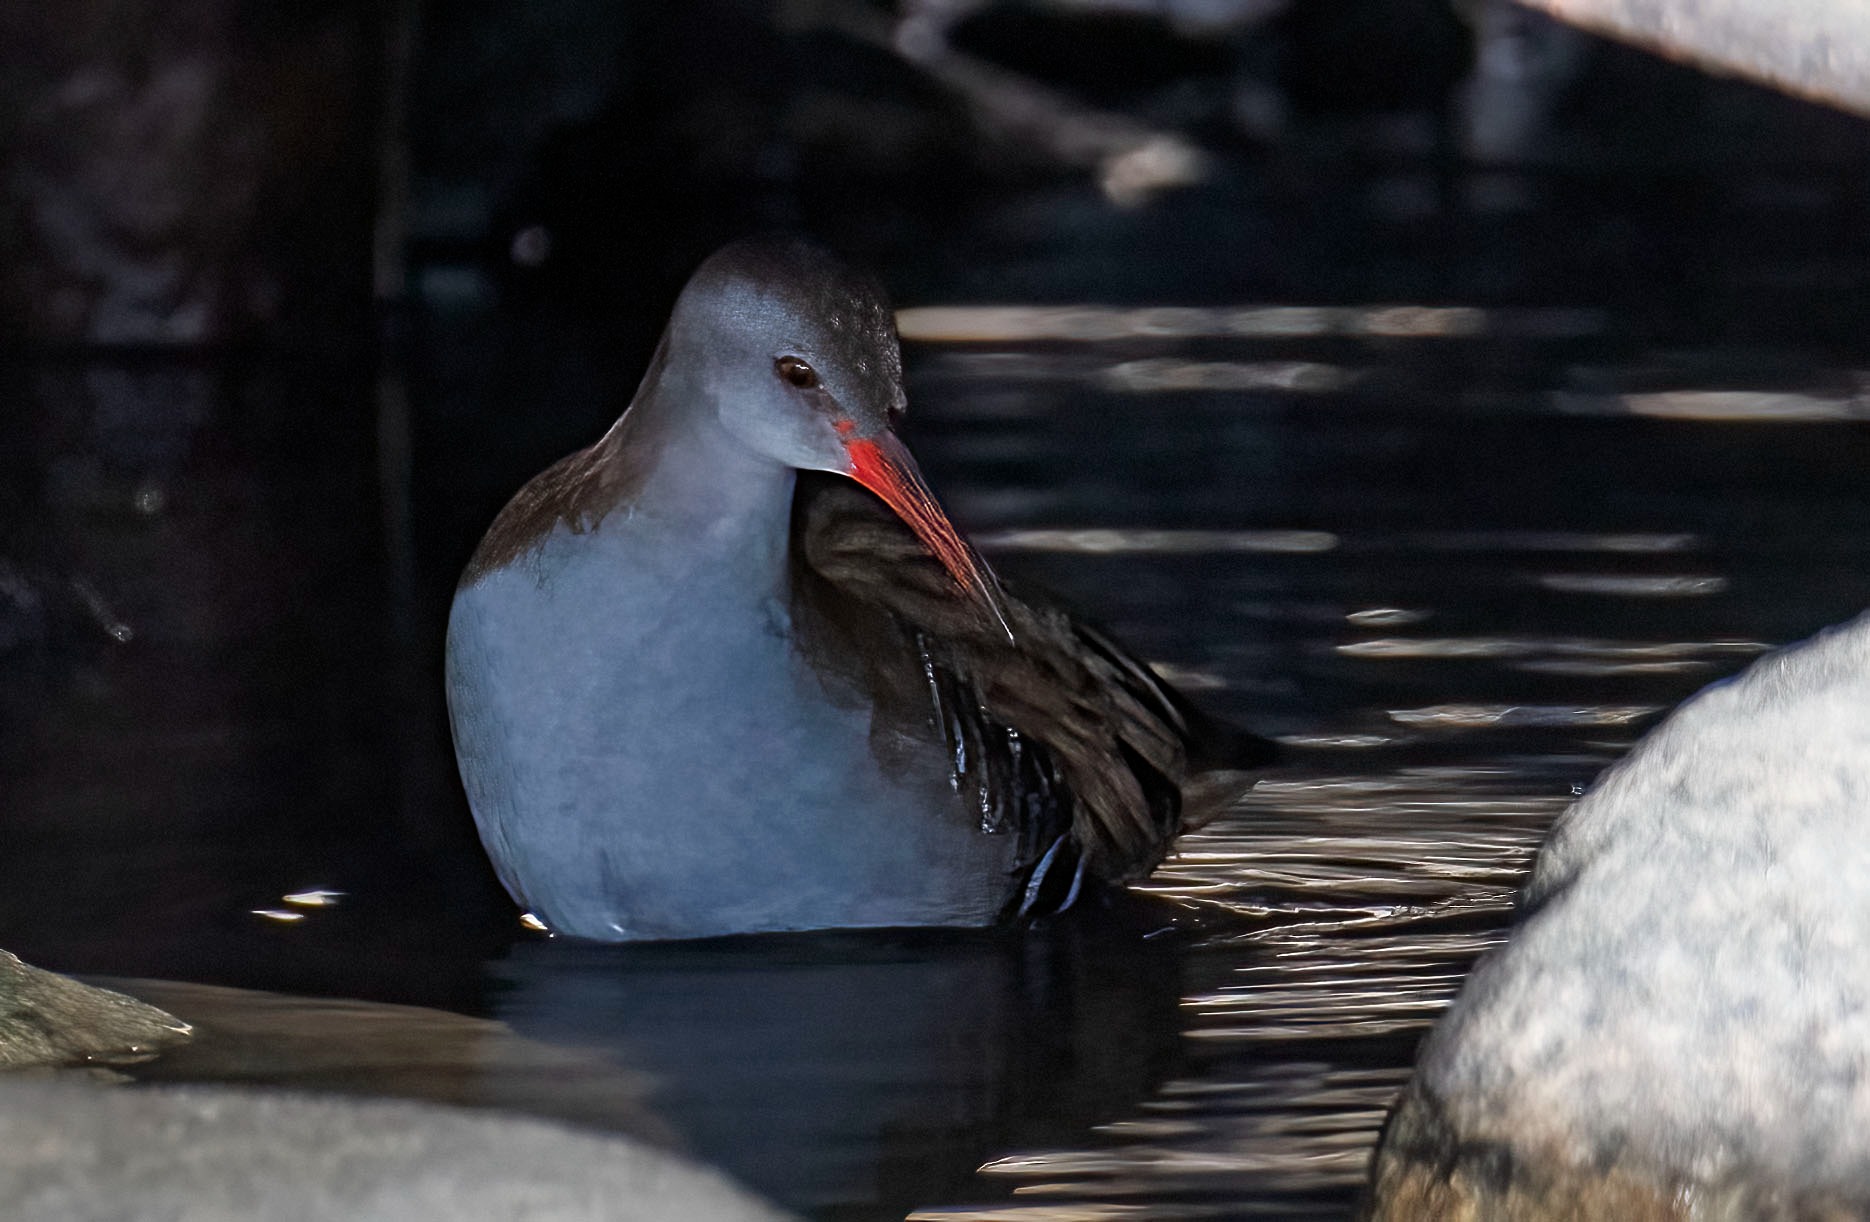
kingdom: Animalia
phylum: Chordata
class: Aves
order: Gruiformes
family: Rallidae
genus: Rallus
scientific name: Rallus aquaticus
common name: Vandrikse
